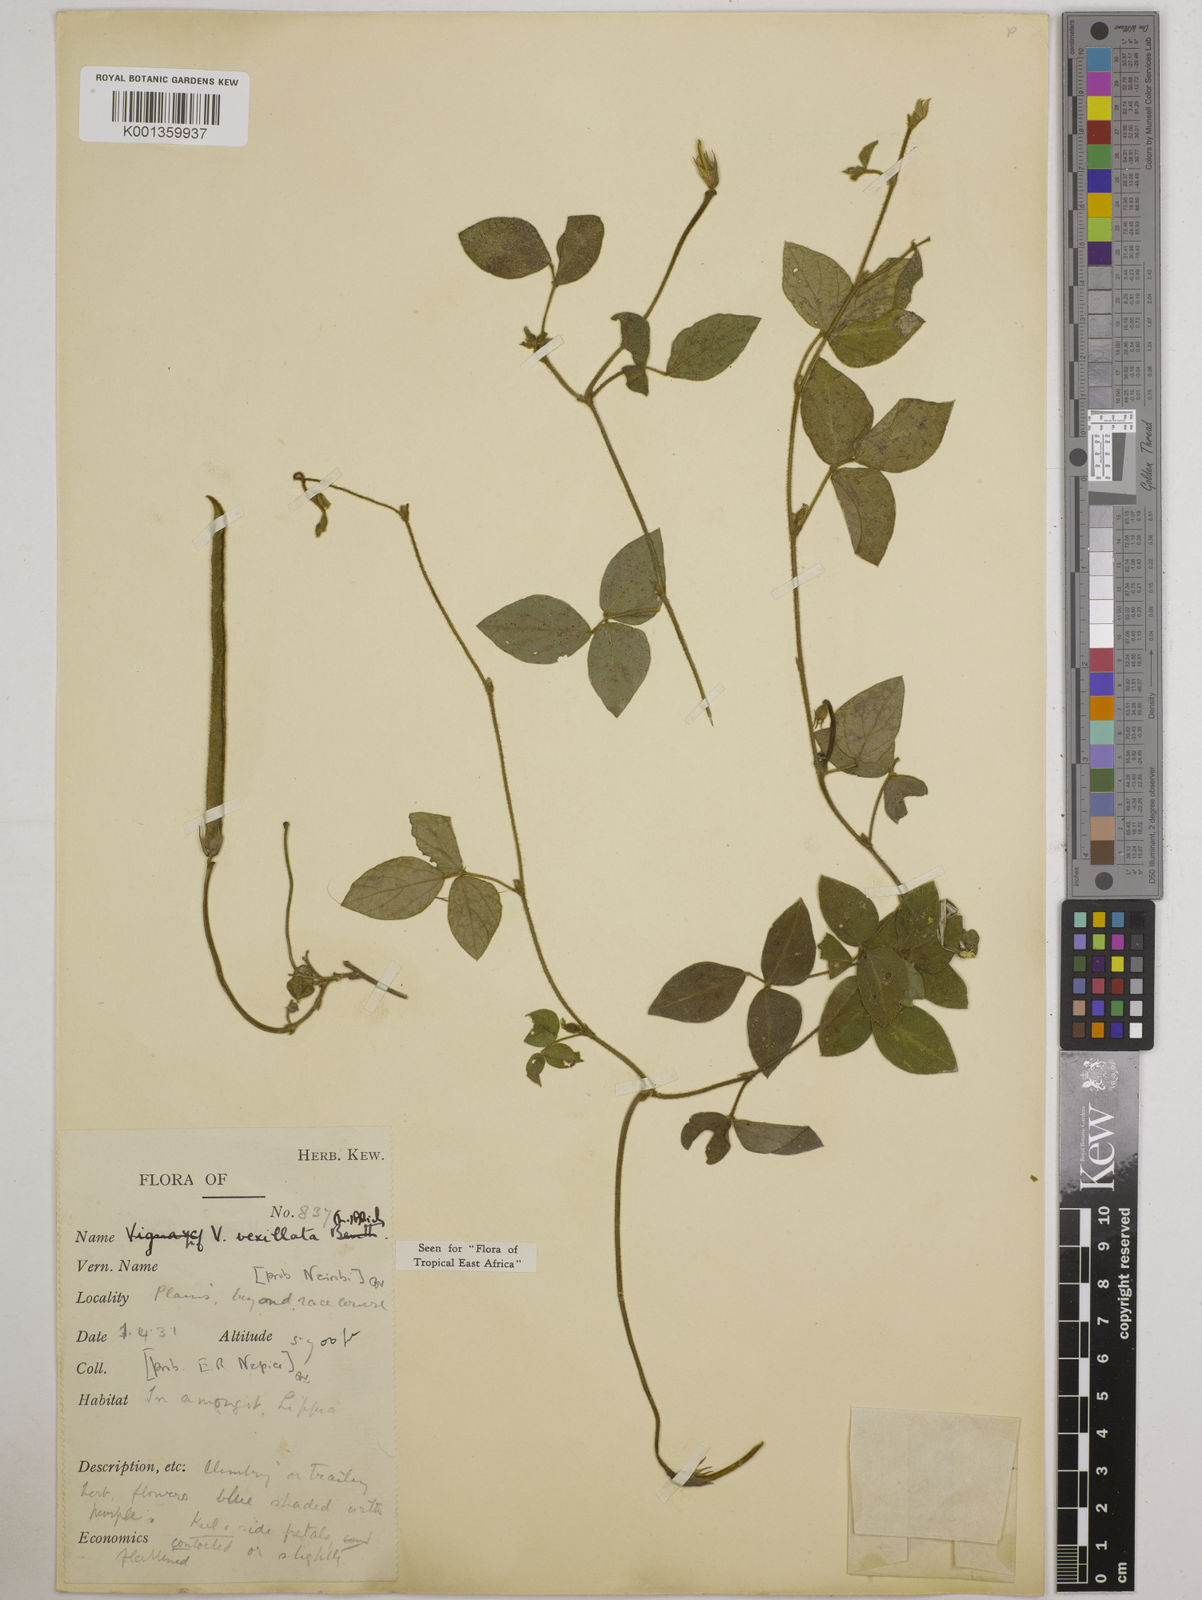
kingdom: Plantae
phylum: Tracheophyta
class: Magnoliopsida
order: Fabales
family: Fabaceae
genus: Vigna
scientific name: Vigna vexillata
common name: Zombi pea
